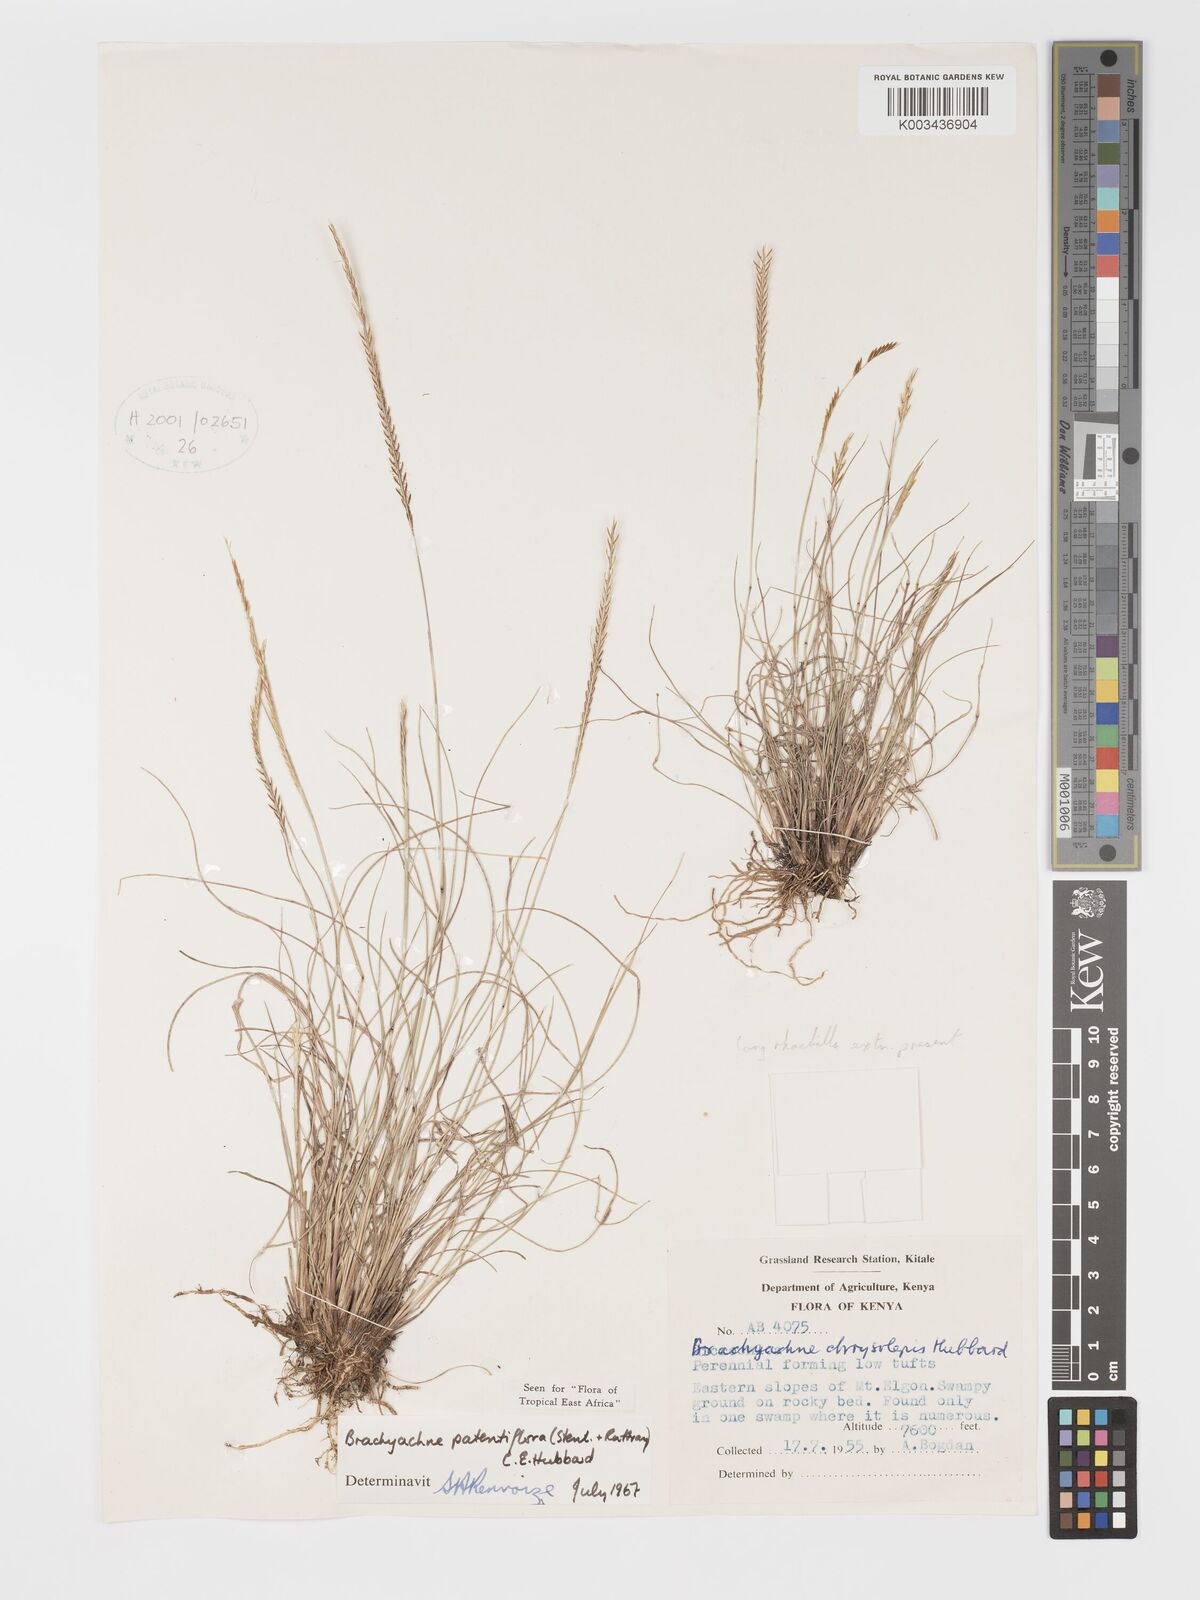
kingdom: Plantae
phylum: Tracheophyta
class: Liliopsida
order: Poales
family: Poaceae
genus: Micrachne
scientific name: Micrachne patentiflora
